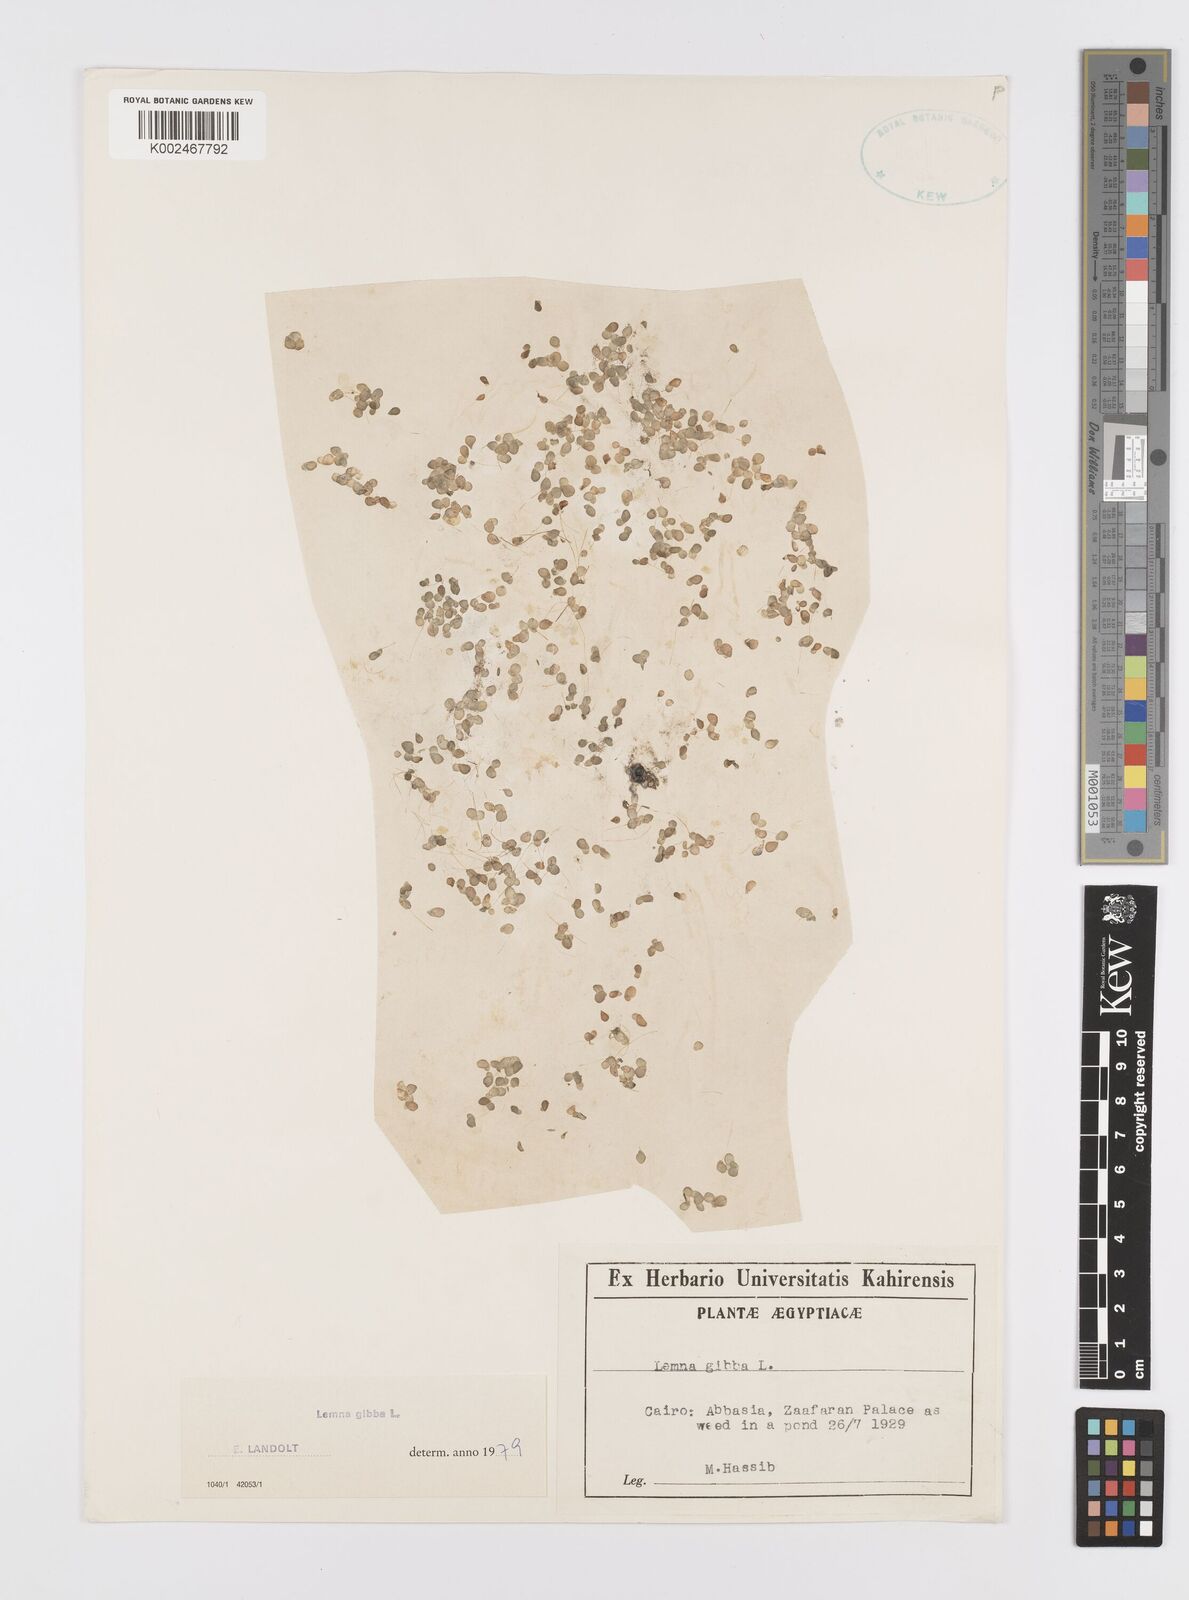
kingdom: Plantae
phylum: Tracheophyta
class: Liliopsida
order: Alismatales
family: Araceae
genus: Lemna
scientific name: Lemna gibba
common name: Fat duckweed
